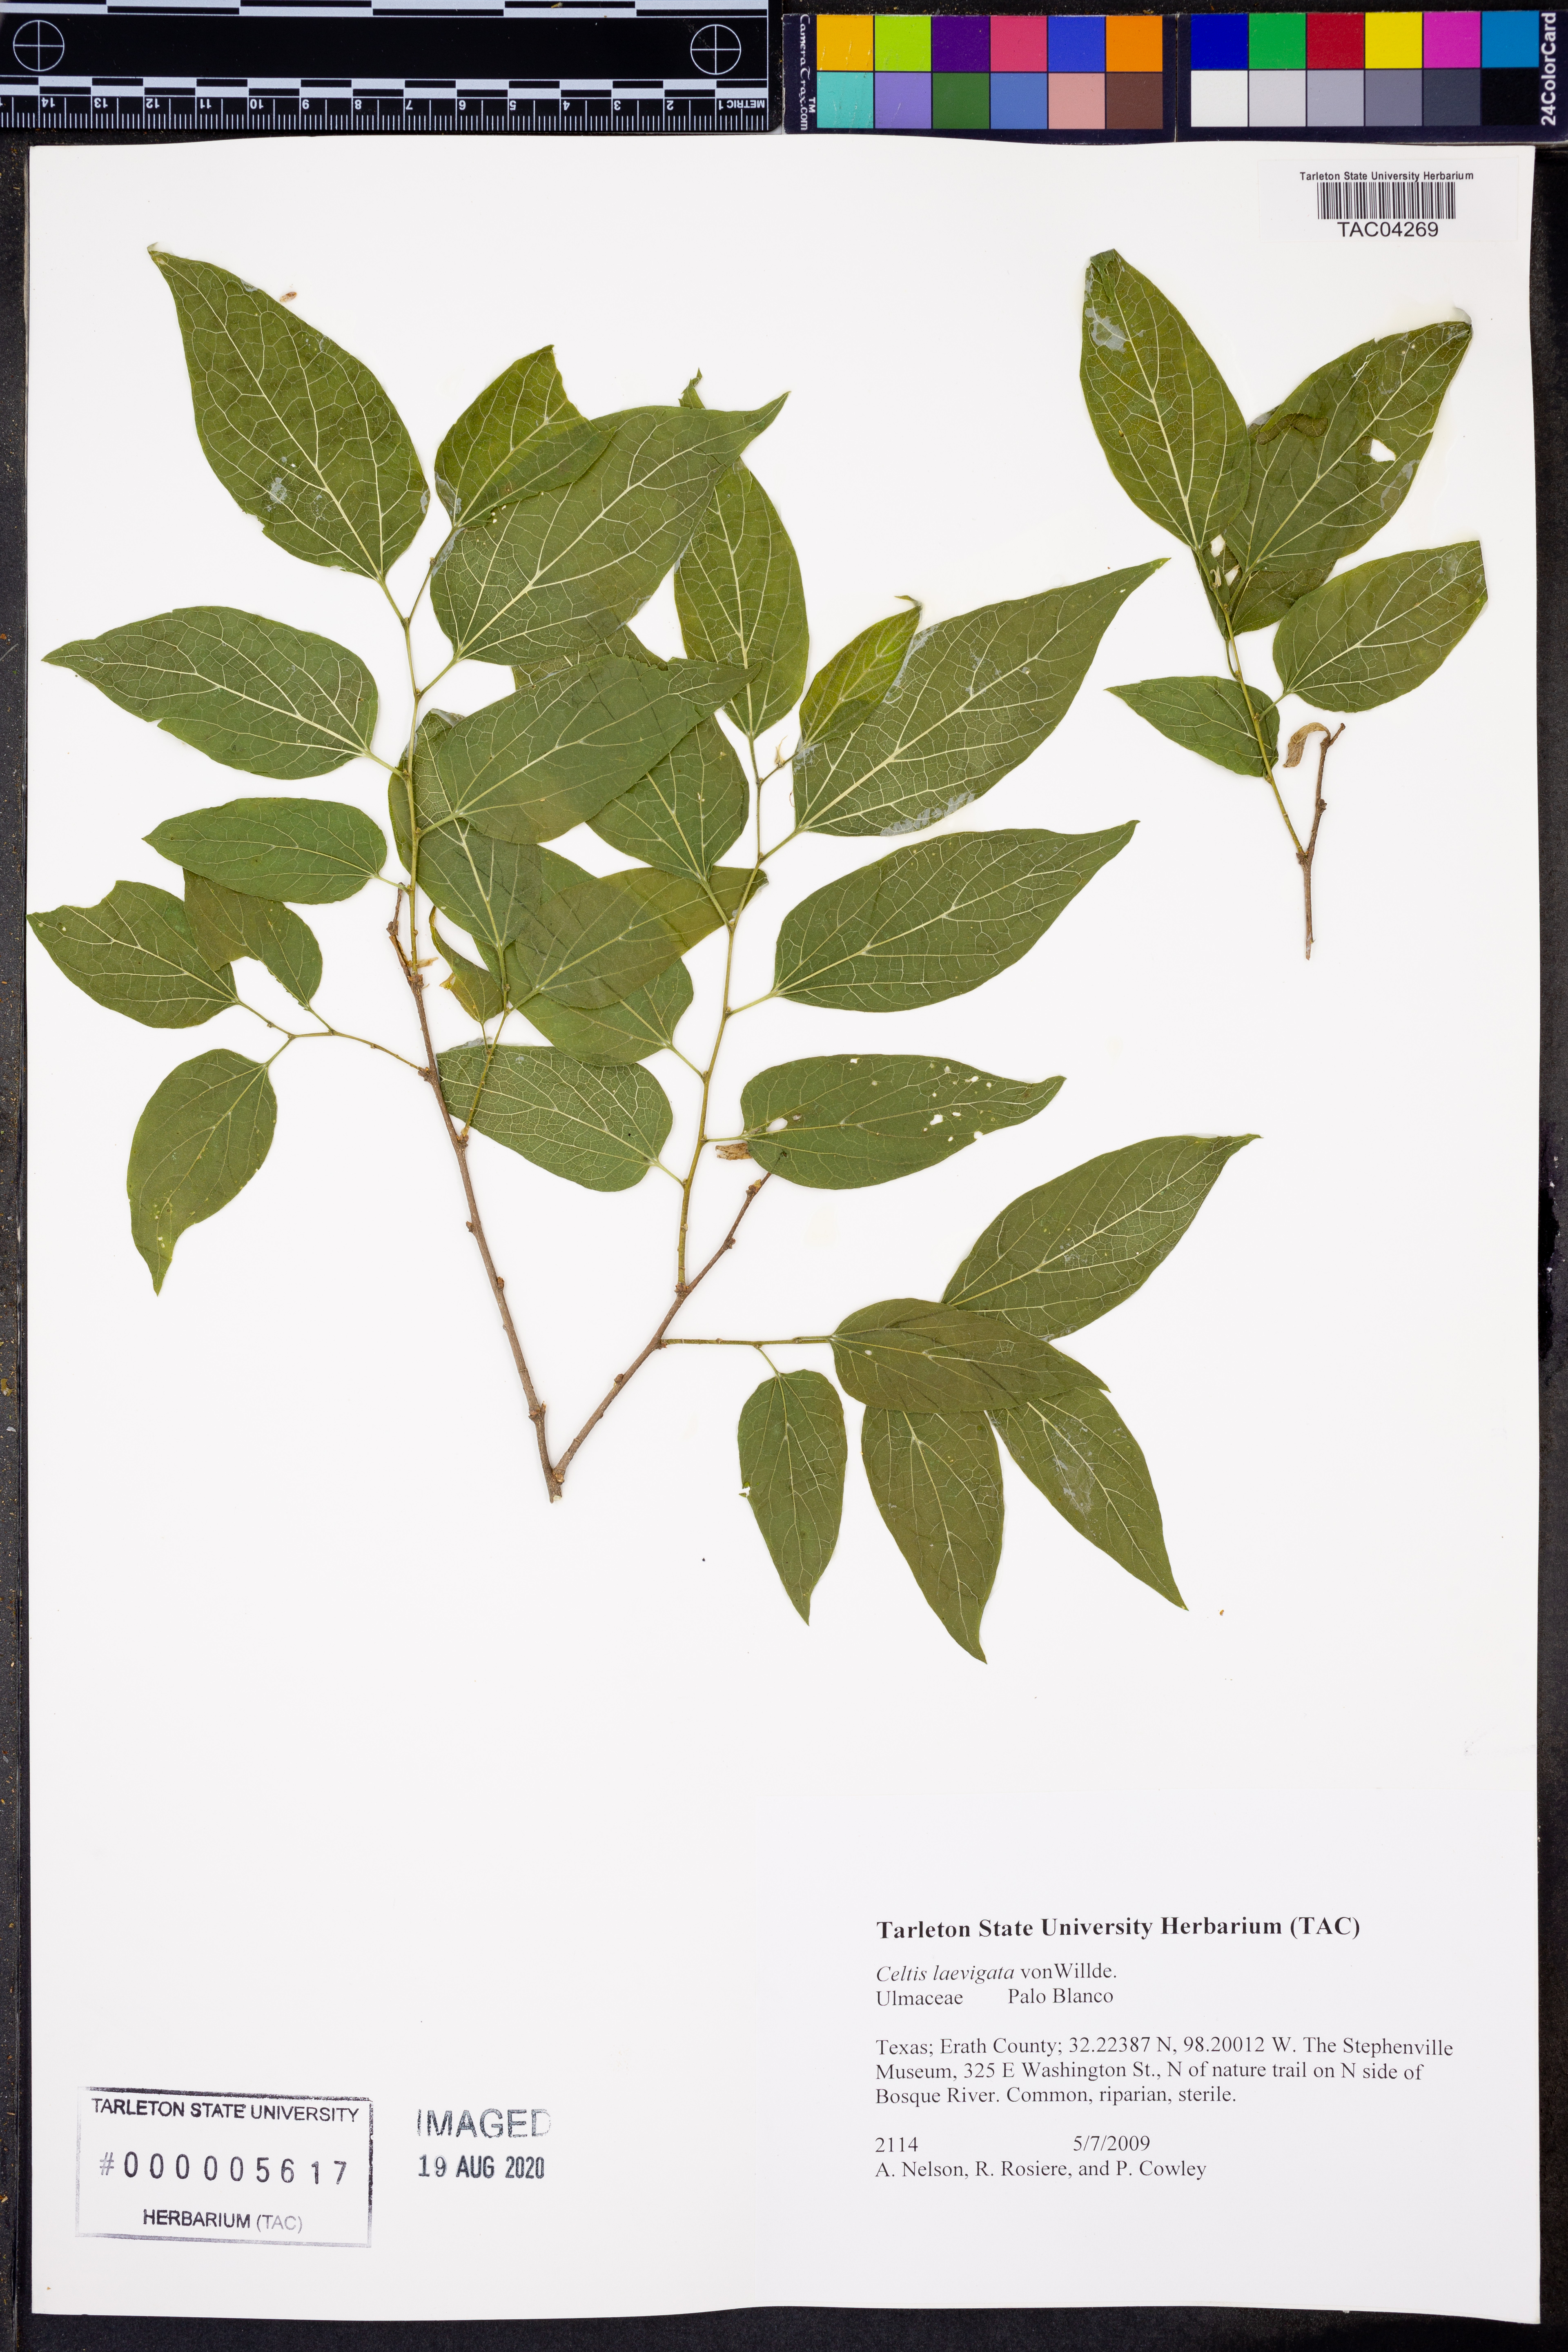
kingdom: Plantae
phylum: Tracheophyta
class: Magnoliopsida
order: Rosales
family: Cannabaceae
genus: Celtis
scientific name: Celtis laevigata
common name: Sugarberry
